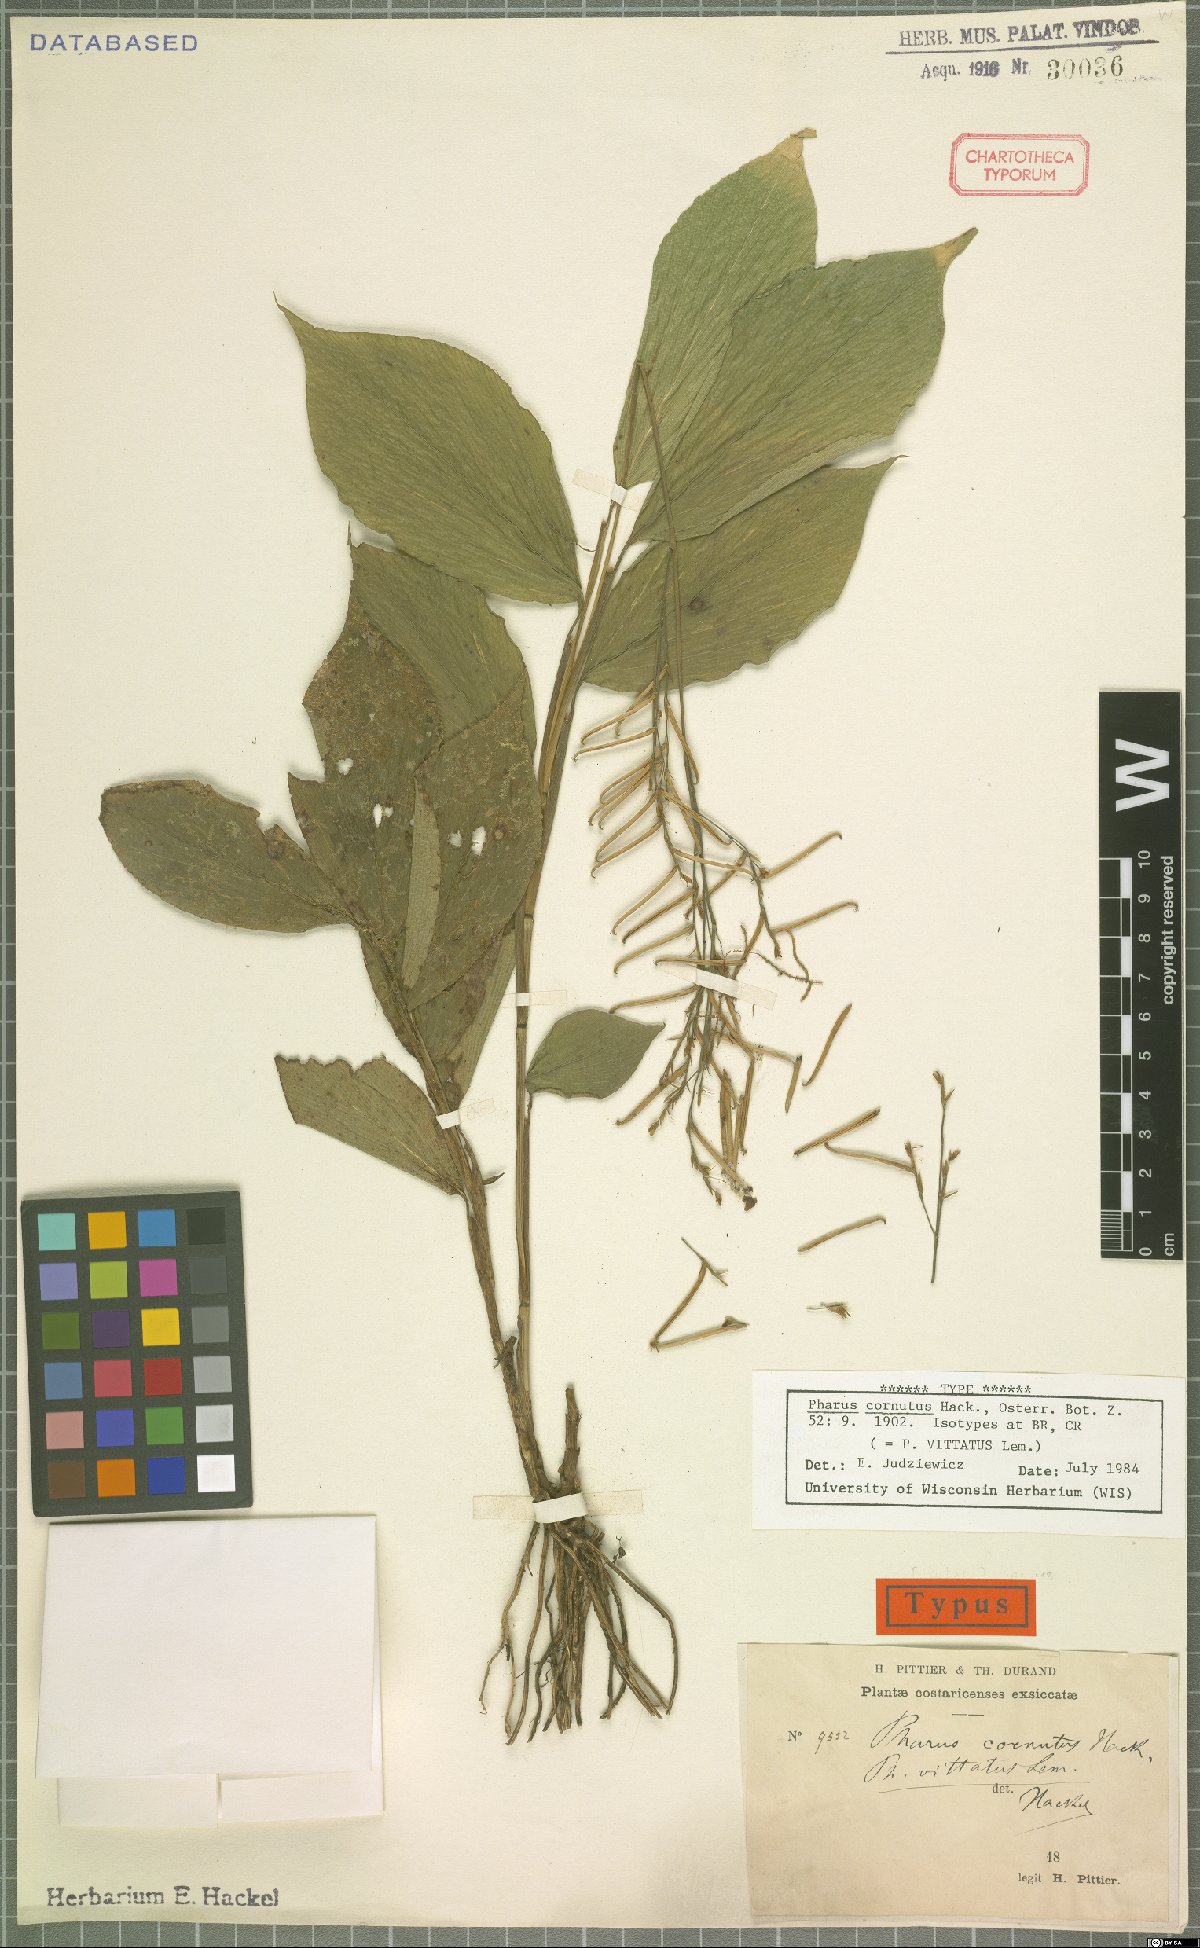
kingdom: Plantae
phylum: Tracheophyta
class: Liliopsida
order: Poales
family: Poaceae
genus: Pharus
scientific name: Pharus vittatus
